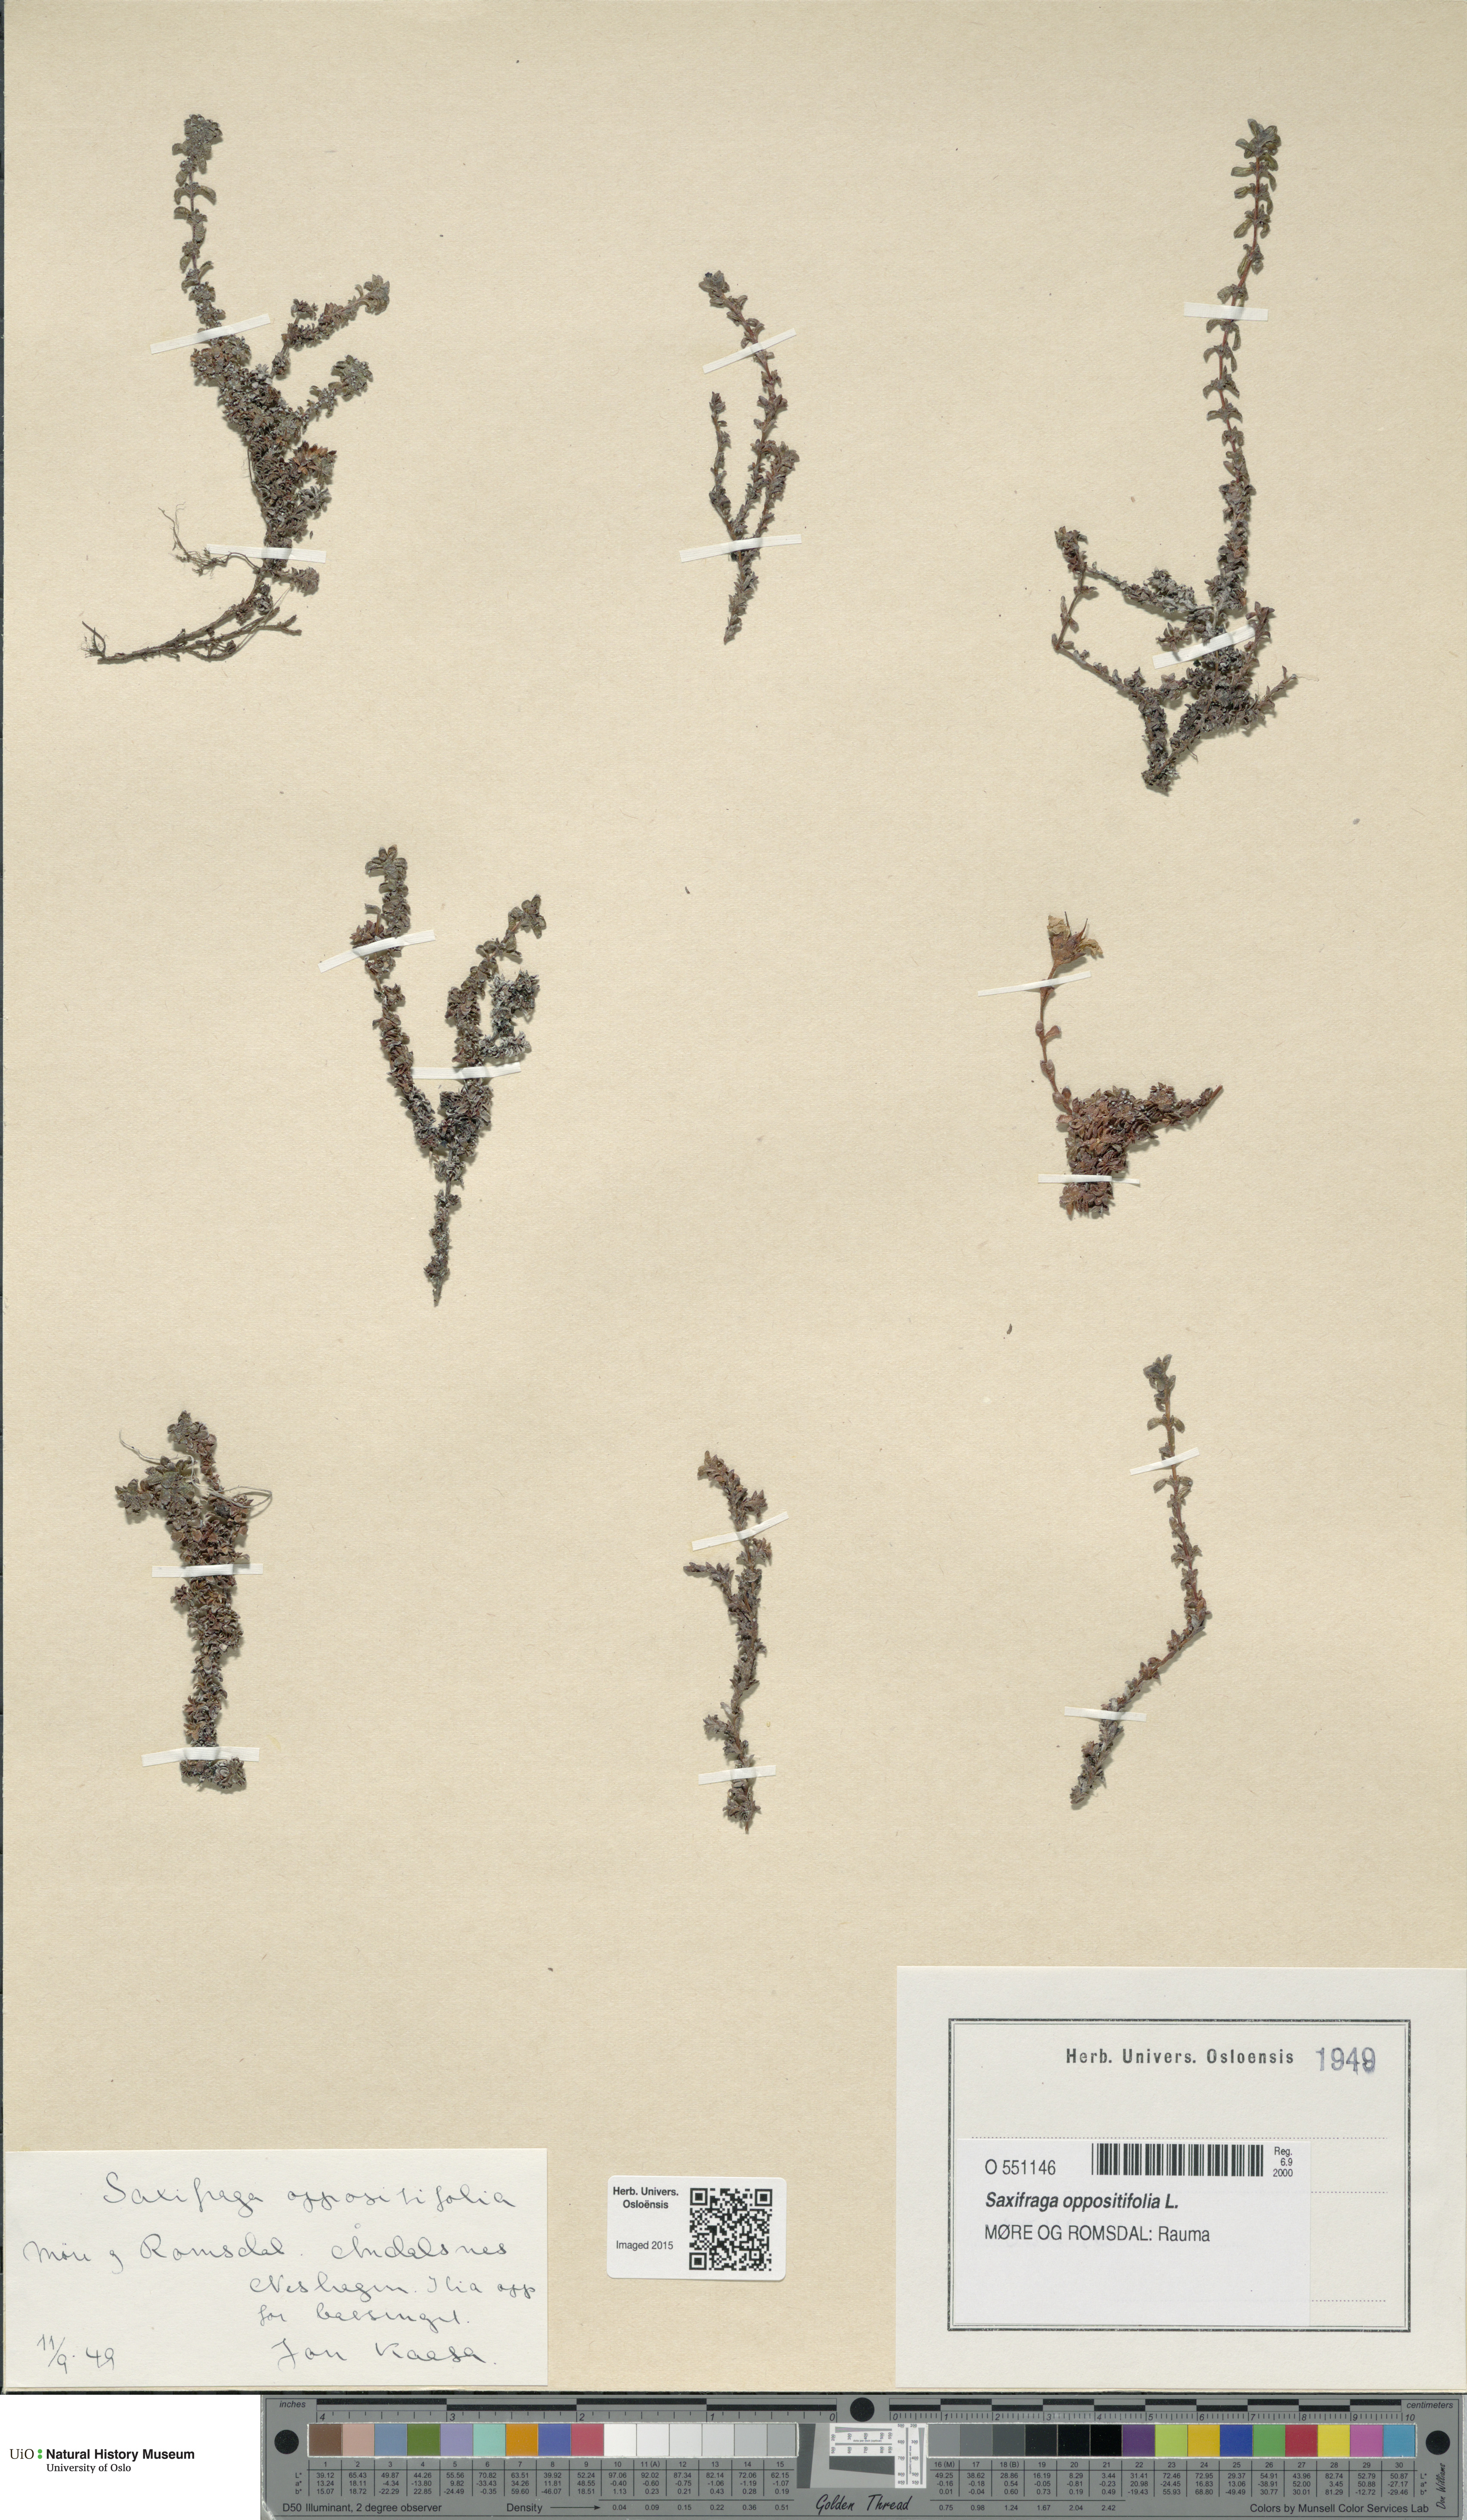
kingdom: Plantae
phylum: Tracheophyta
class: Magnoliopsida
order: Saxifragales
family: Saxifragaceae
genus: Saxifraga
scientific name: Saxifraga oppositifolia
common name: Purple saxifrage
